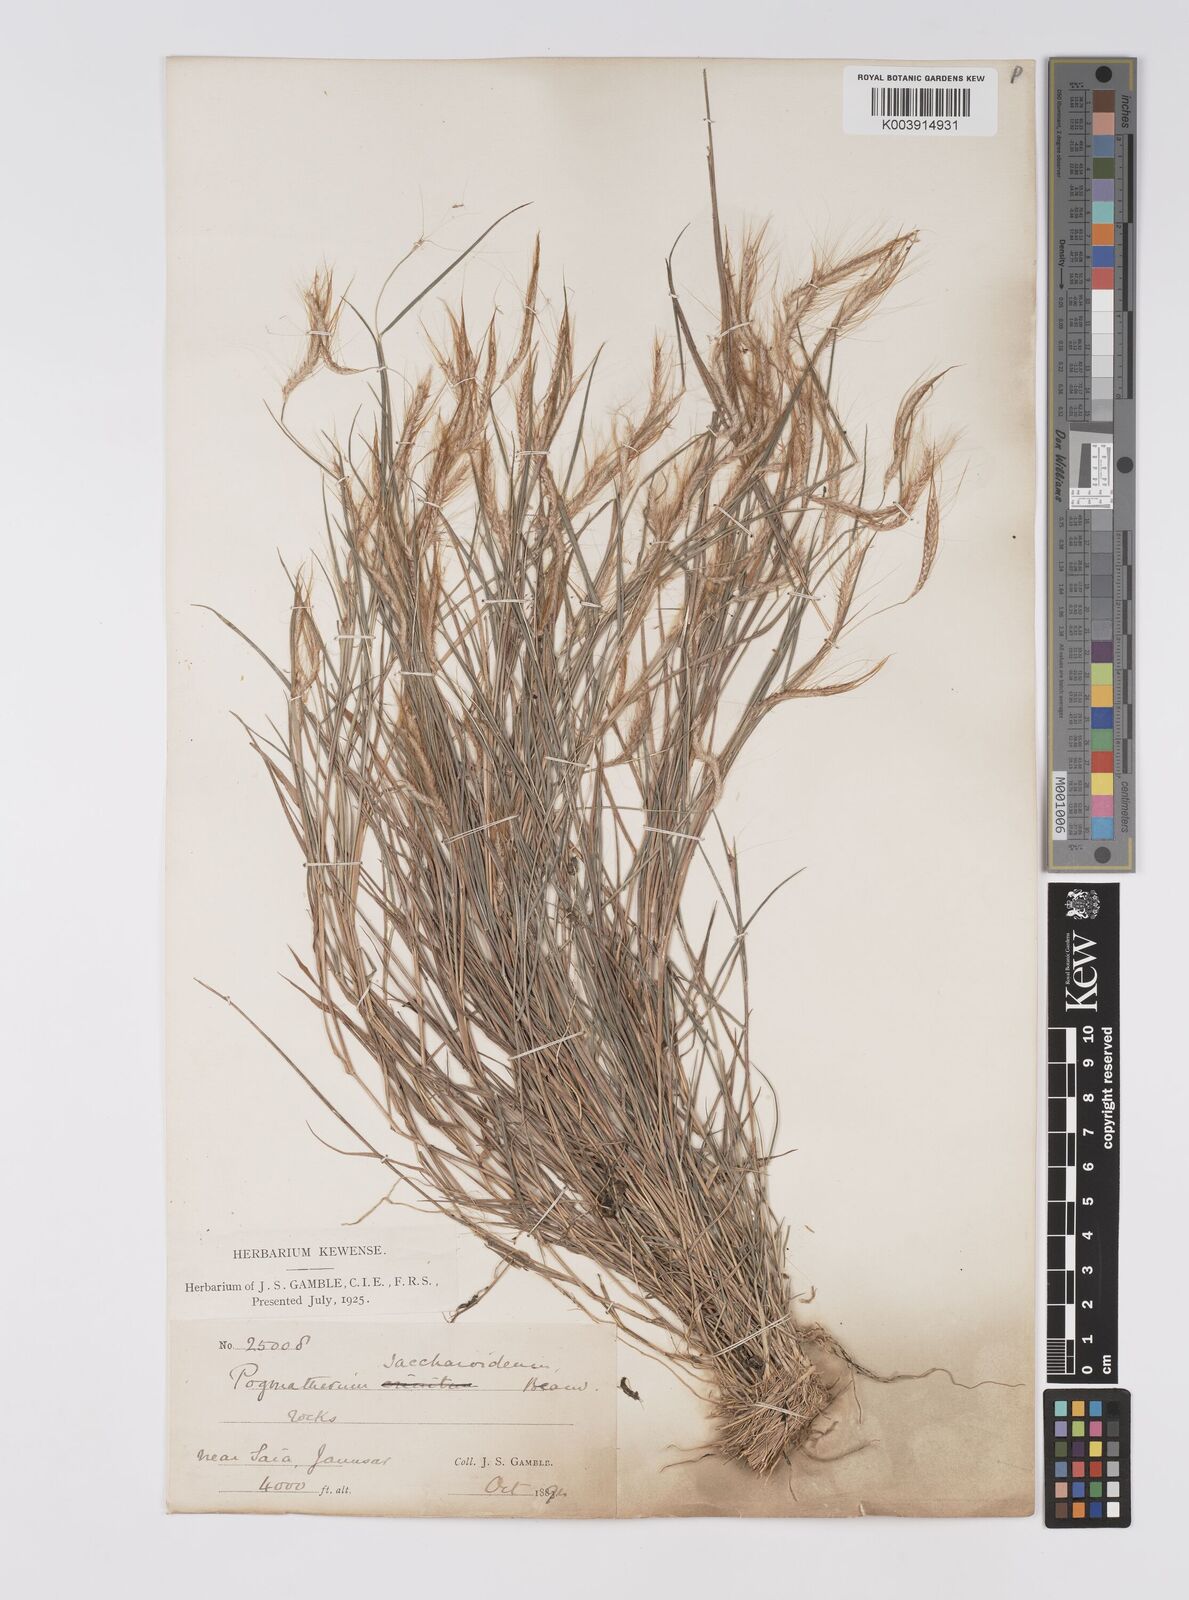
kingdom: Plantae
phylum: Tracheophyta
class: Liliopsida
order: Poales
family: Poaceae
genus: Pogonatherum
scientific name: Pogonatherum paniceum
